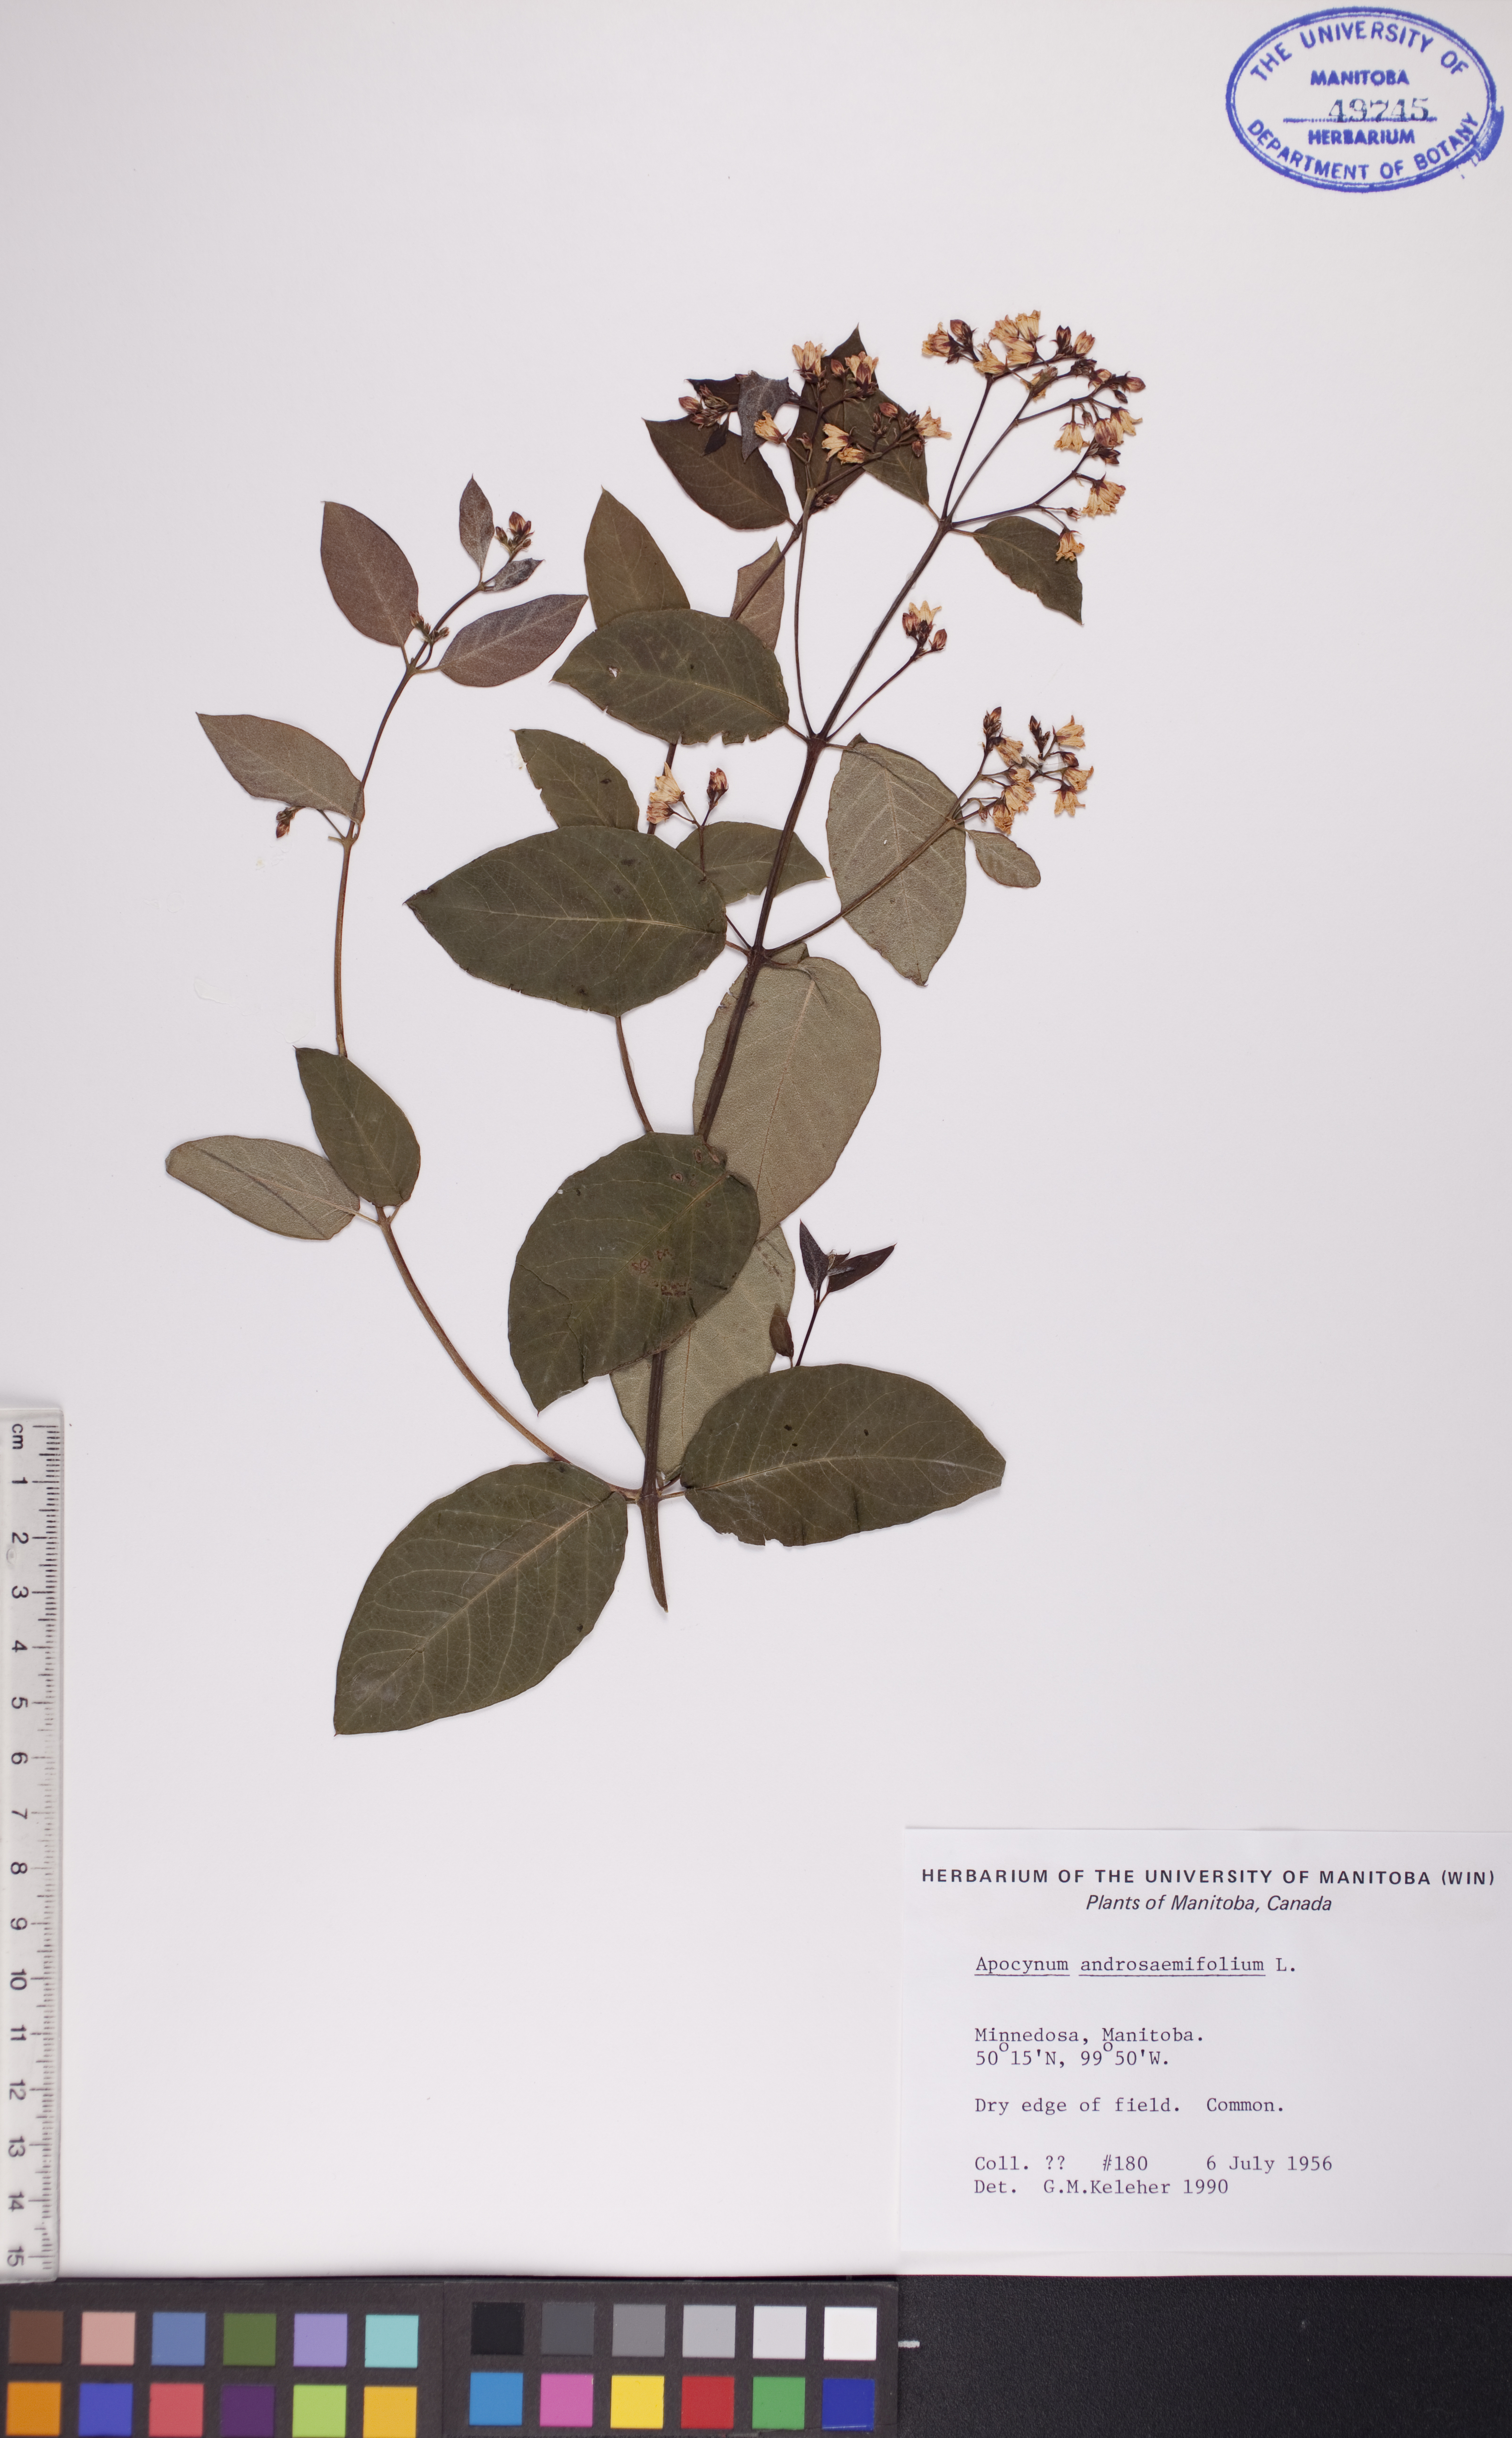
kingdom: Plantae
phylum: Tracheophyta
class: Magnoliopsida
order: Gentianales
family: Apocynaceae
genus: Apocynum
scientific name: Apocynum androsaemifolium
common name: Spreading dogbane
